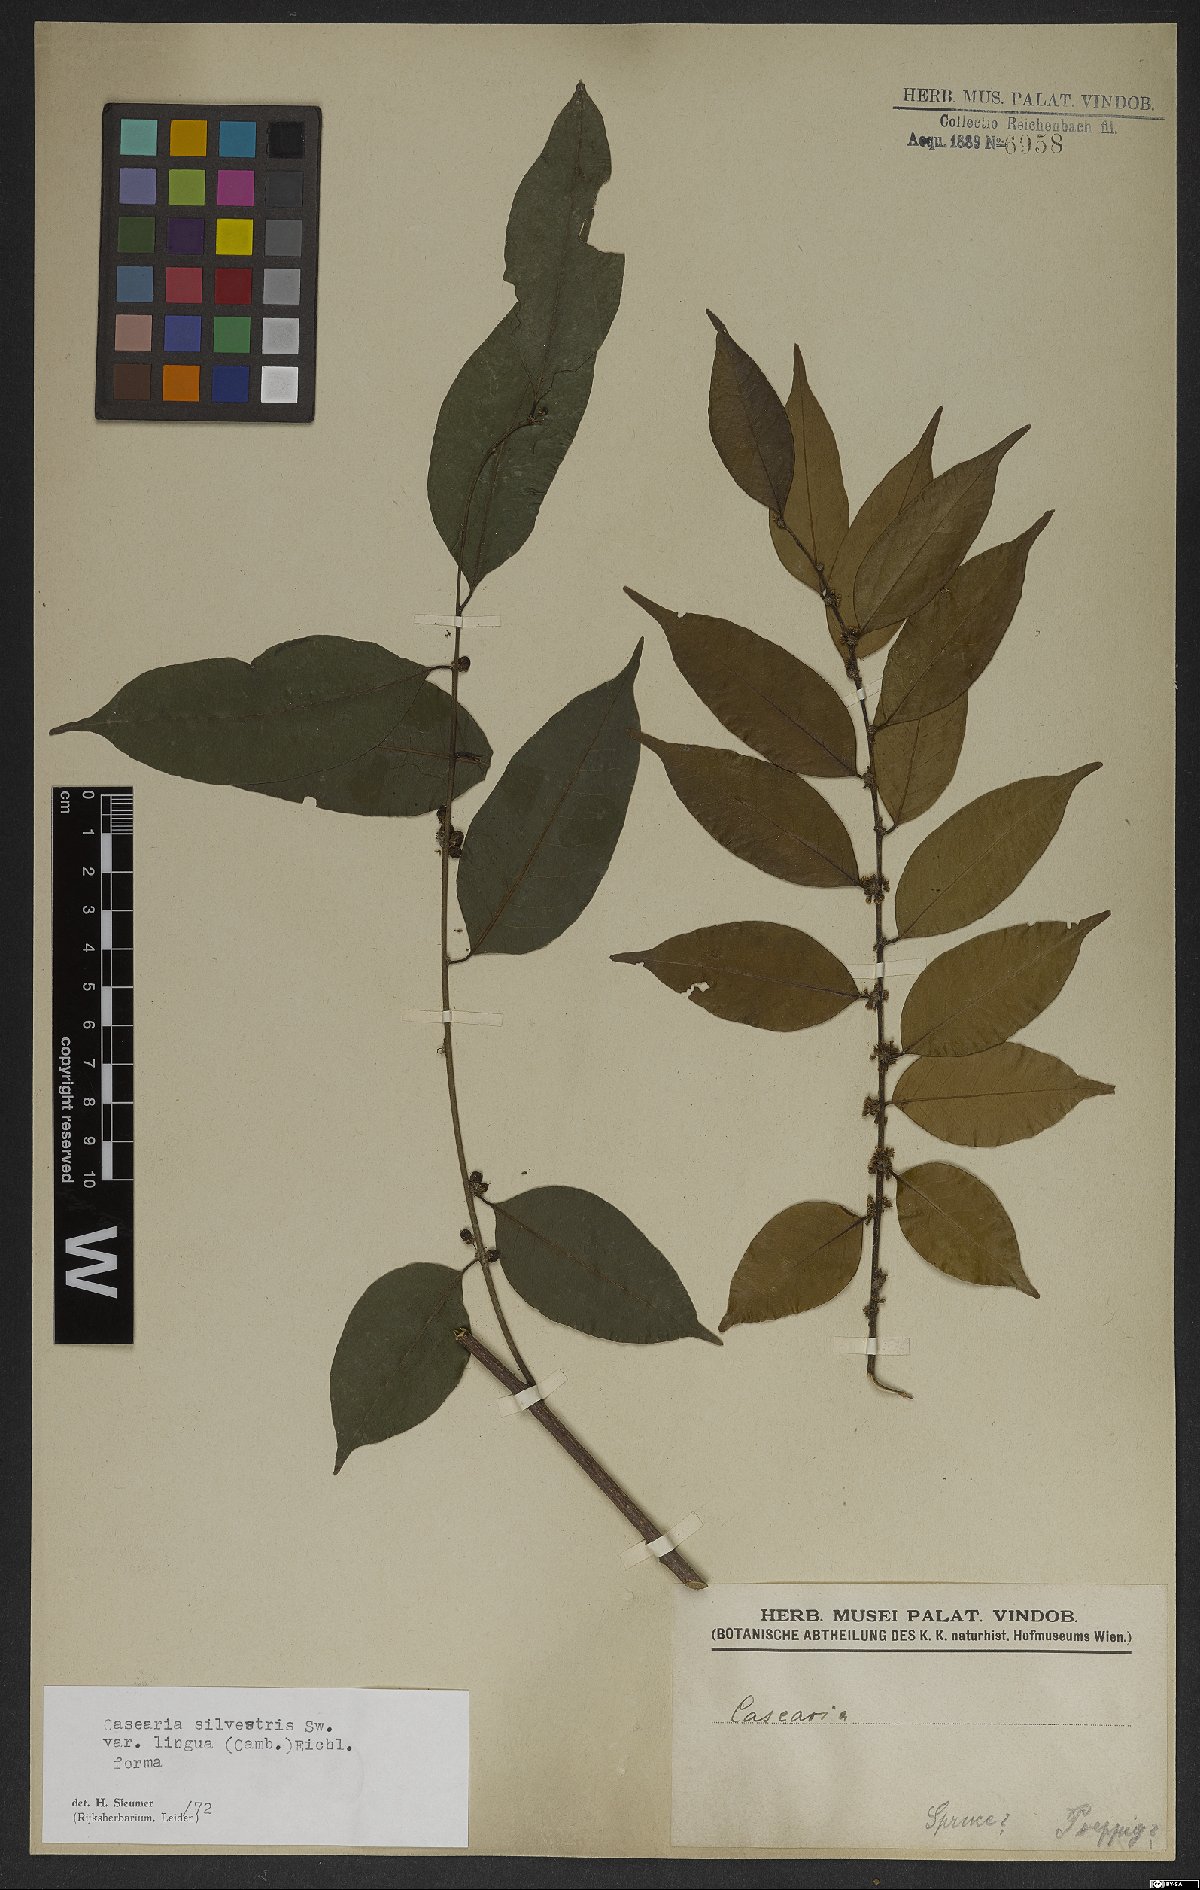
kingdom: Plantae
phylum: Tracheophyta
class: Magnoliopsida
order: Malpighiales
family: Salicaceae
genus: Casearia
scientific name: Casearia sylvestris
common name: Wild sage
